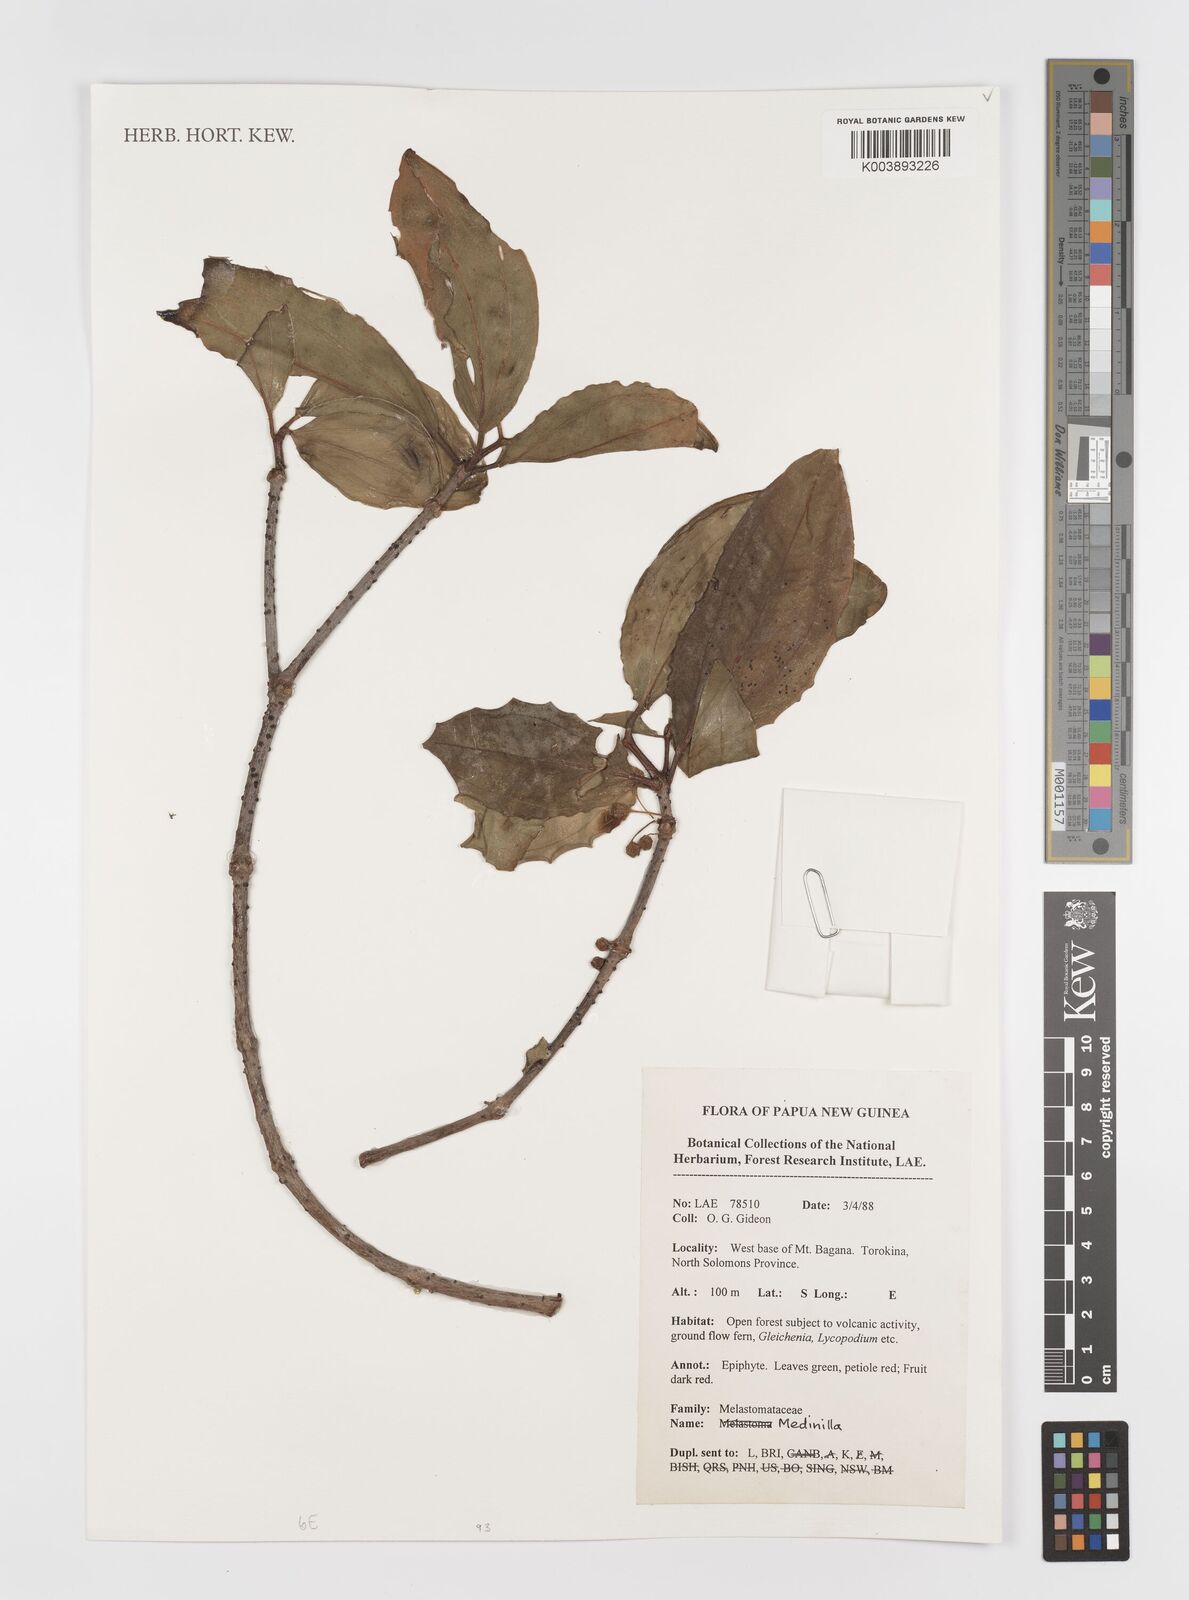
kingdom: Plantae
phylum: Tracheophyta
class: Magnoliopsida
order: Myrtales
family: Melastomataceae
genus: Medinilla
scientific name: Medinilla
